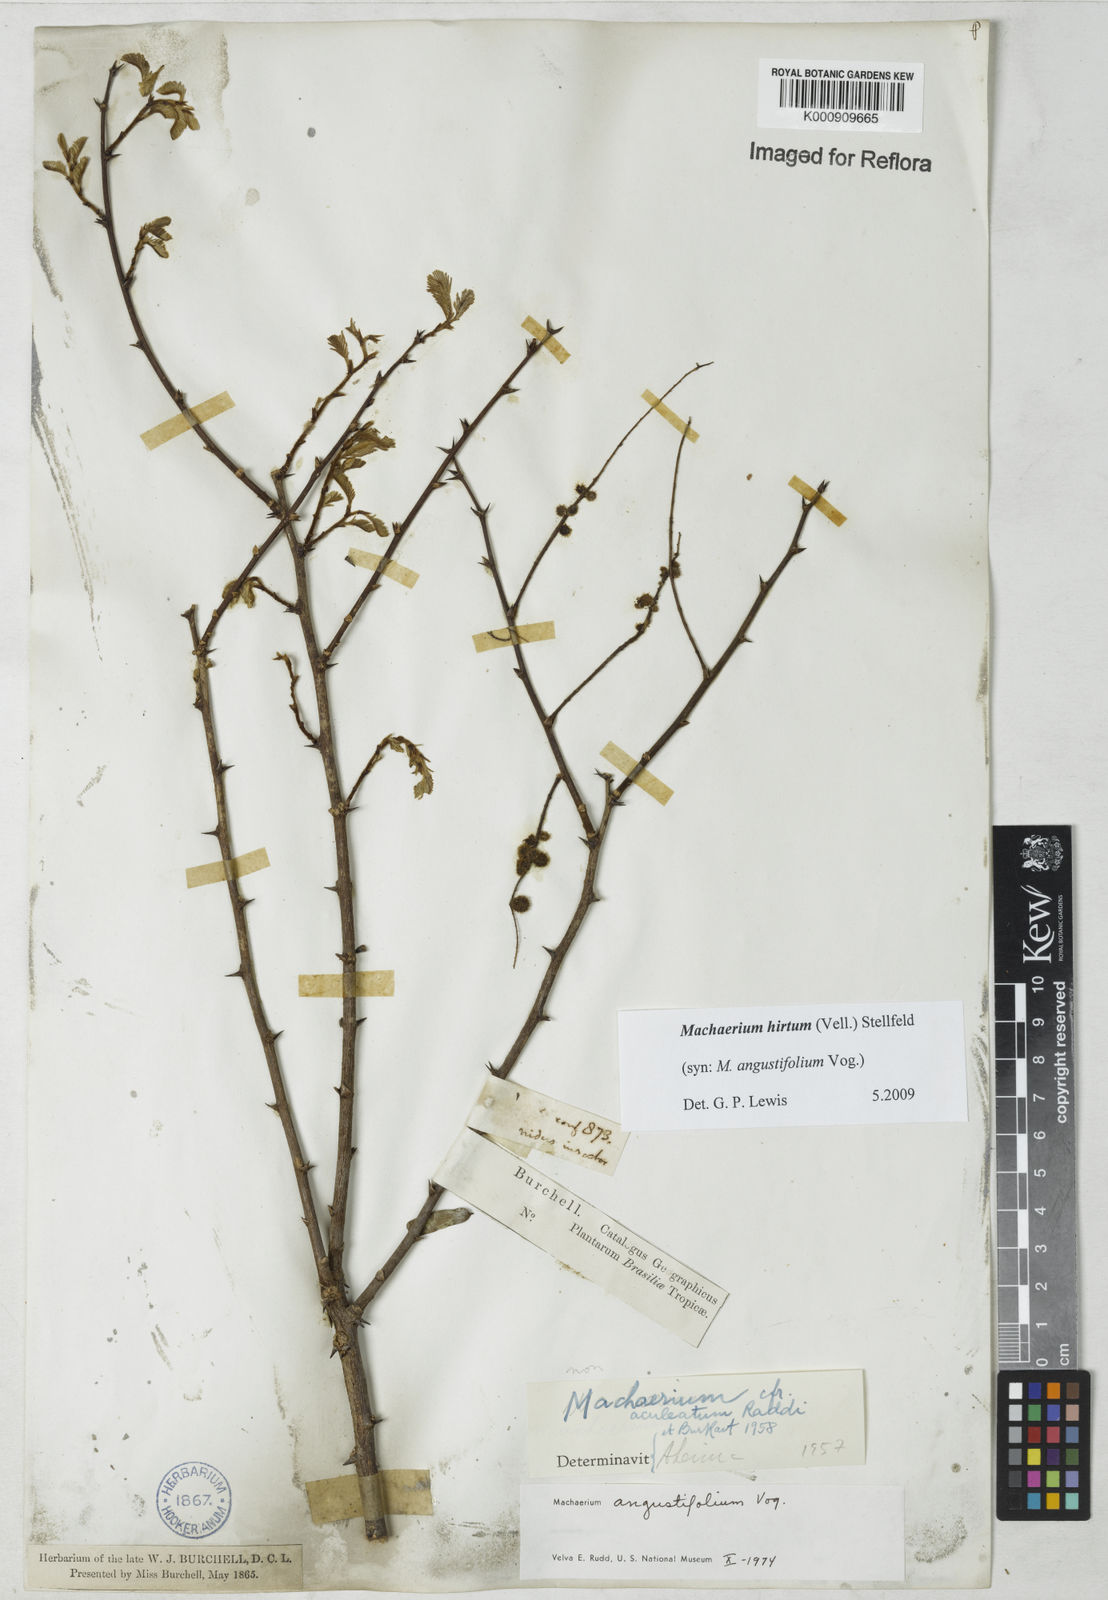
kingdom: Plantae
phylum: Tracheophyta
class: Magnoliopsida
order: Fabales
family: Fabaceae
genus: Machaerium
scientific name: Machaerium hirtum
